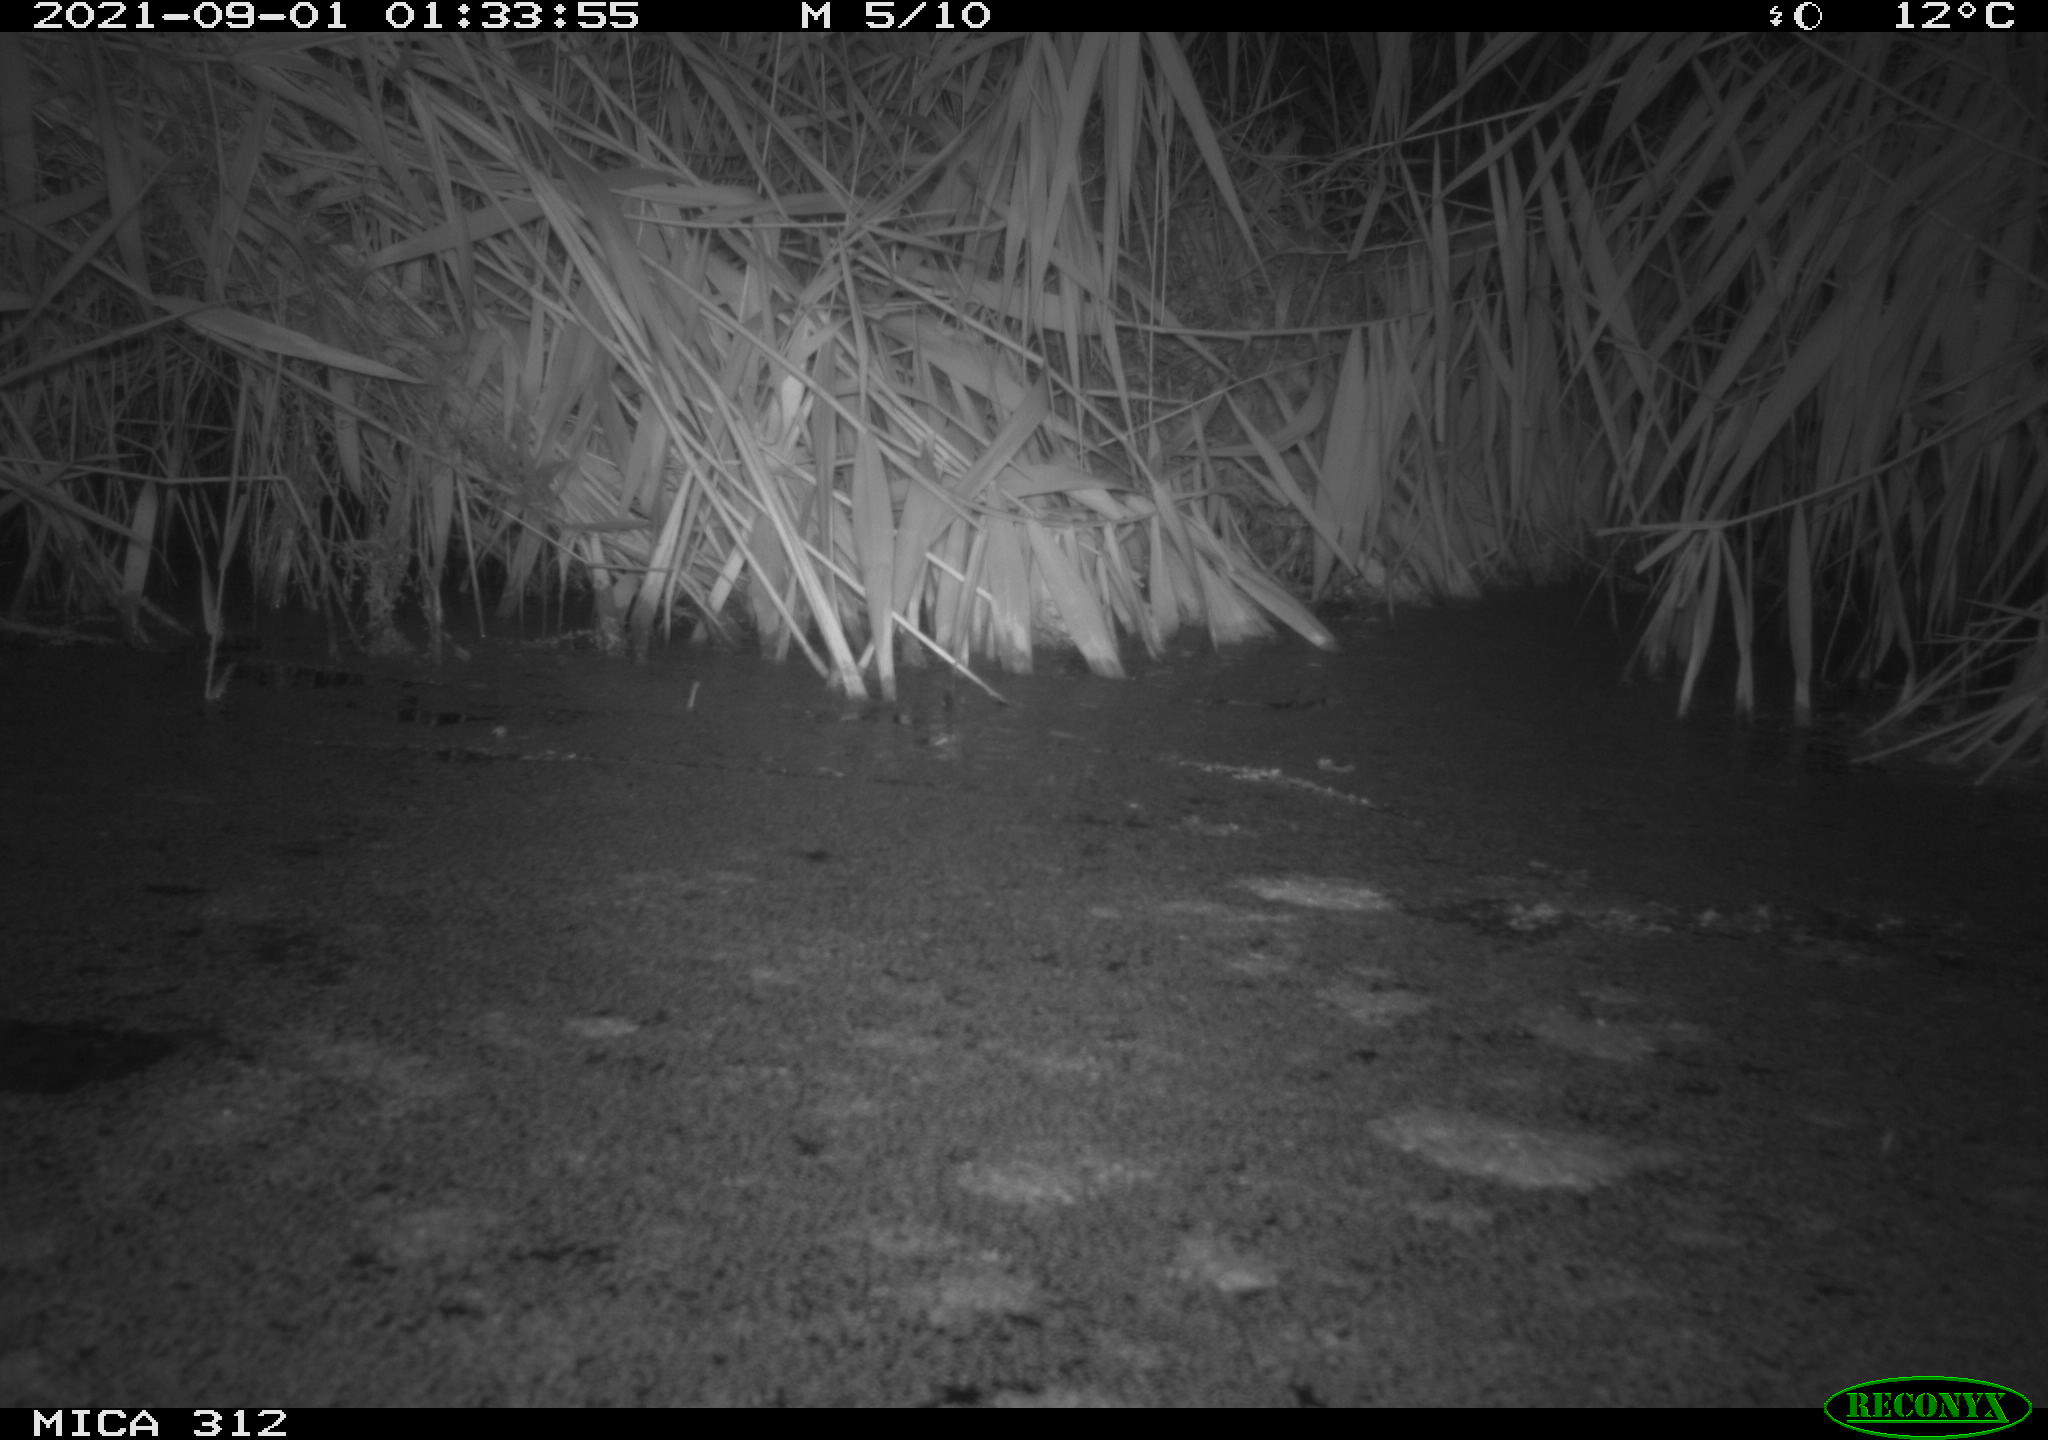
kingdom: Animalia
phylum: Chordata
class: Mammalia
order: Rodentia
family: Muridae
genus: Rattus
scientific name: Rattus norvegicus
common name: Brown rat
